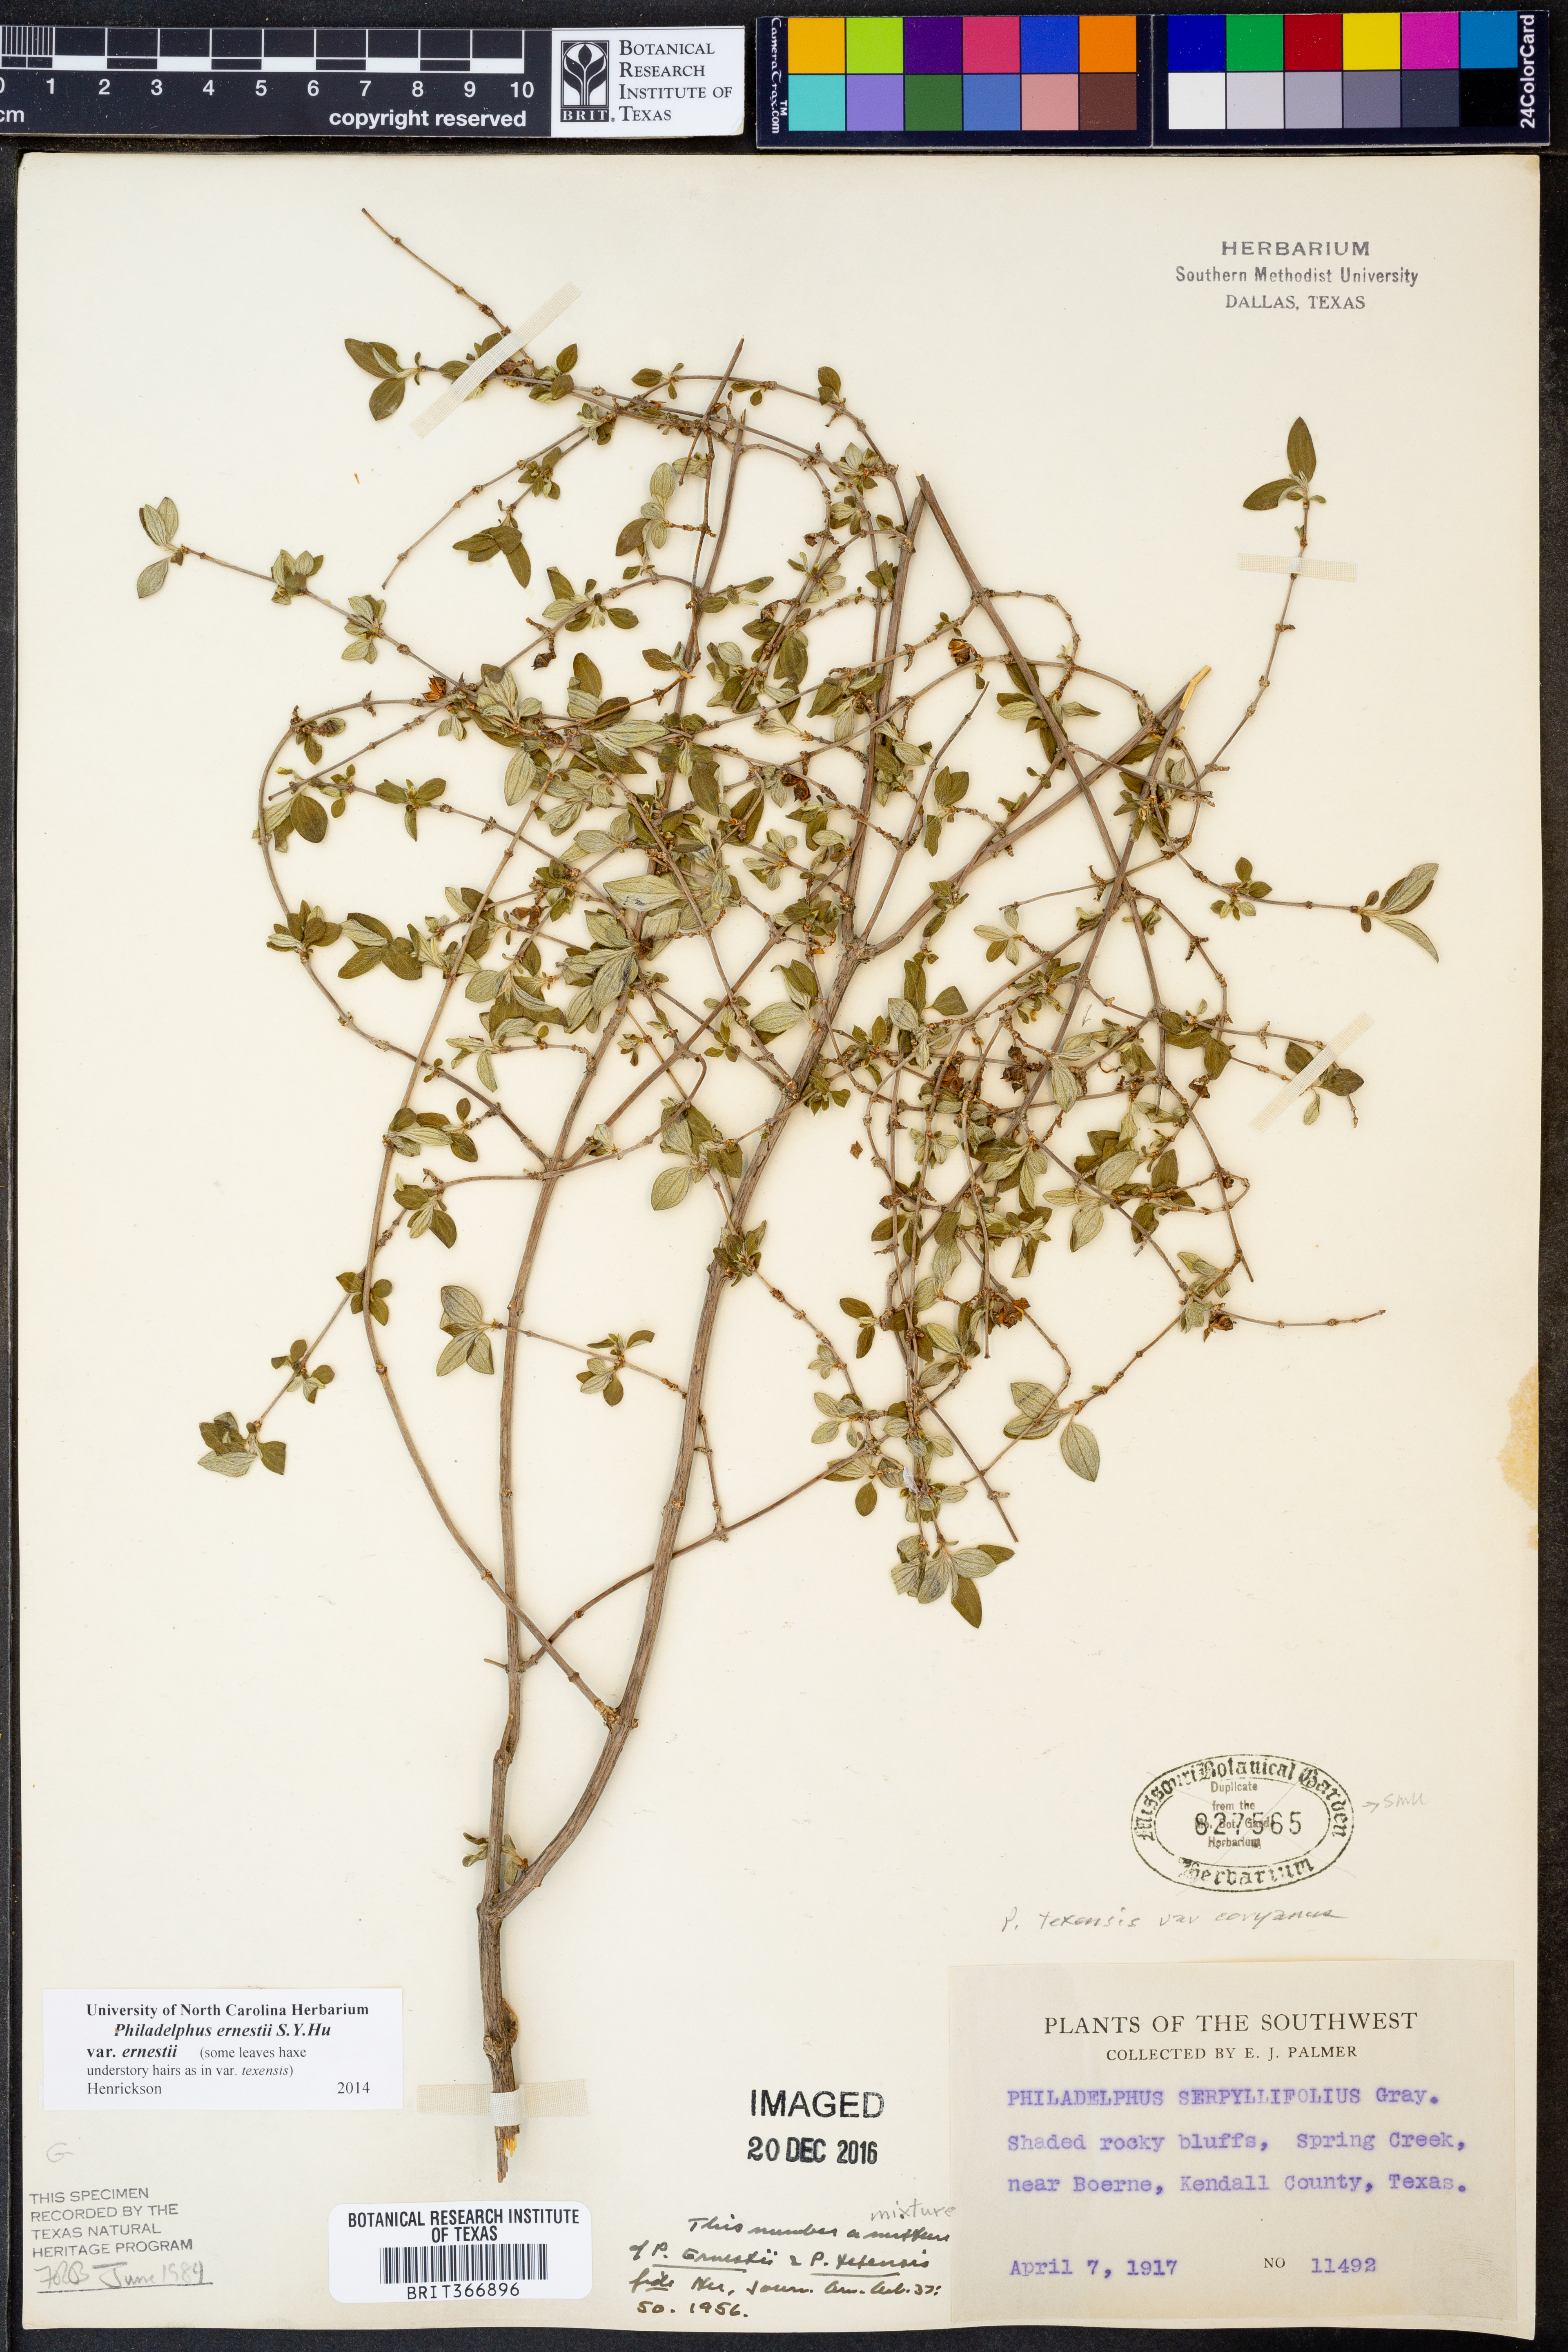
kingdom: Plantae
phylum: Tracheophyta
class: Magnoliopsida
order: Cornales
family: Hydrangeaceae
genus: Philadelphus
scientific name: Philadelphus texensis
